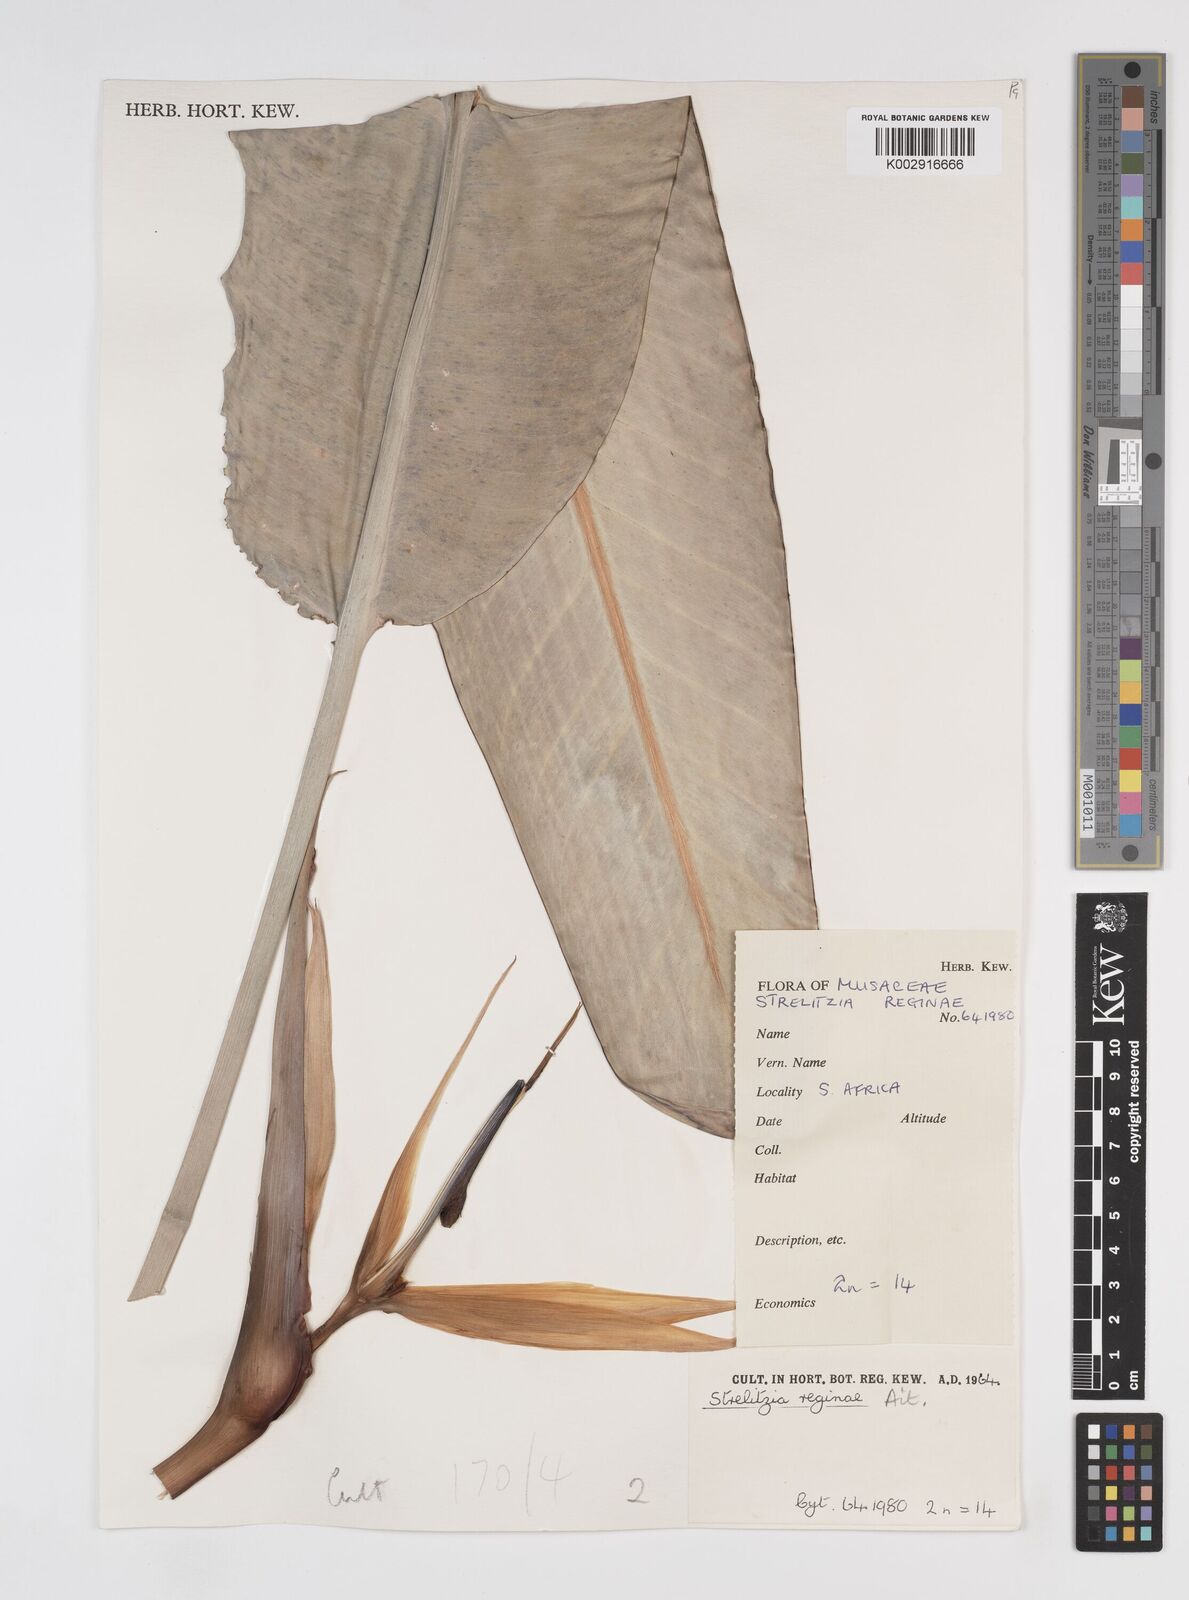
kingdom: Plantae
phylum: Tracheophyta
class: Liliopsida
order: Zingiberales
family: Strelitziaceae
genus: Strelitzia
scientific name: Strelitzia reginae
